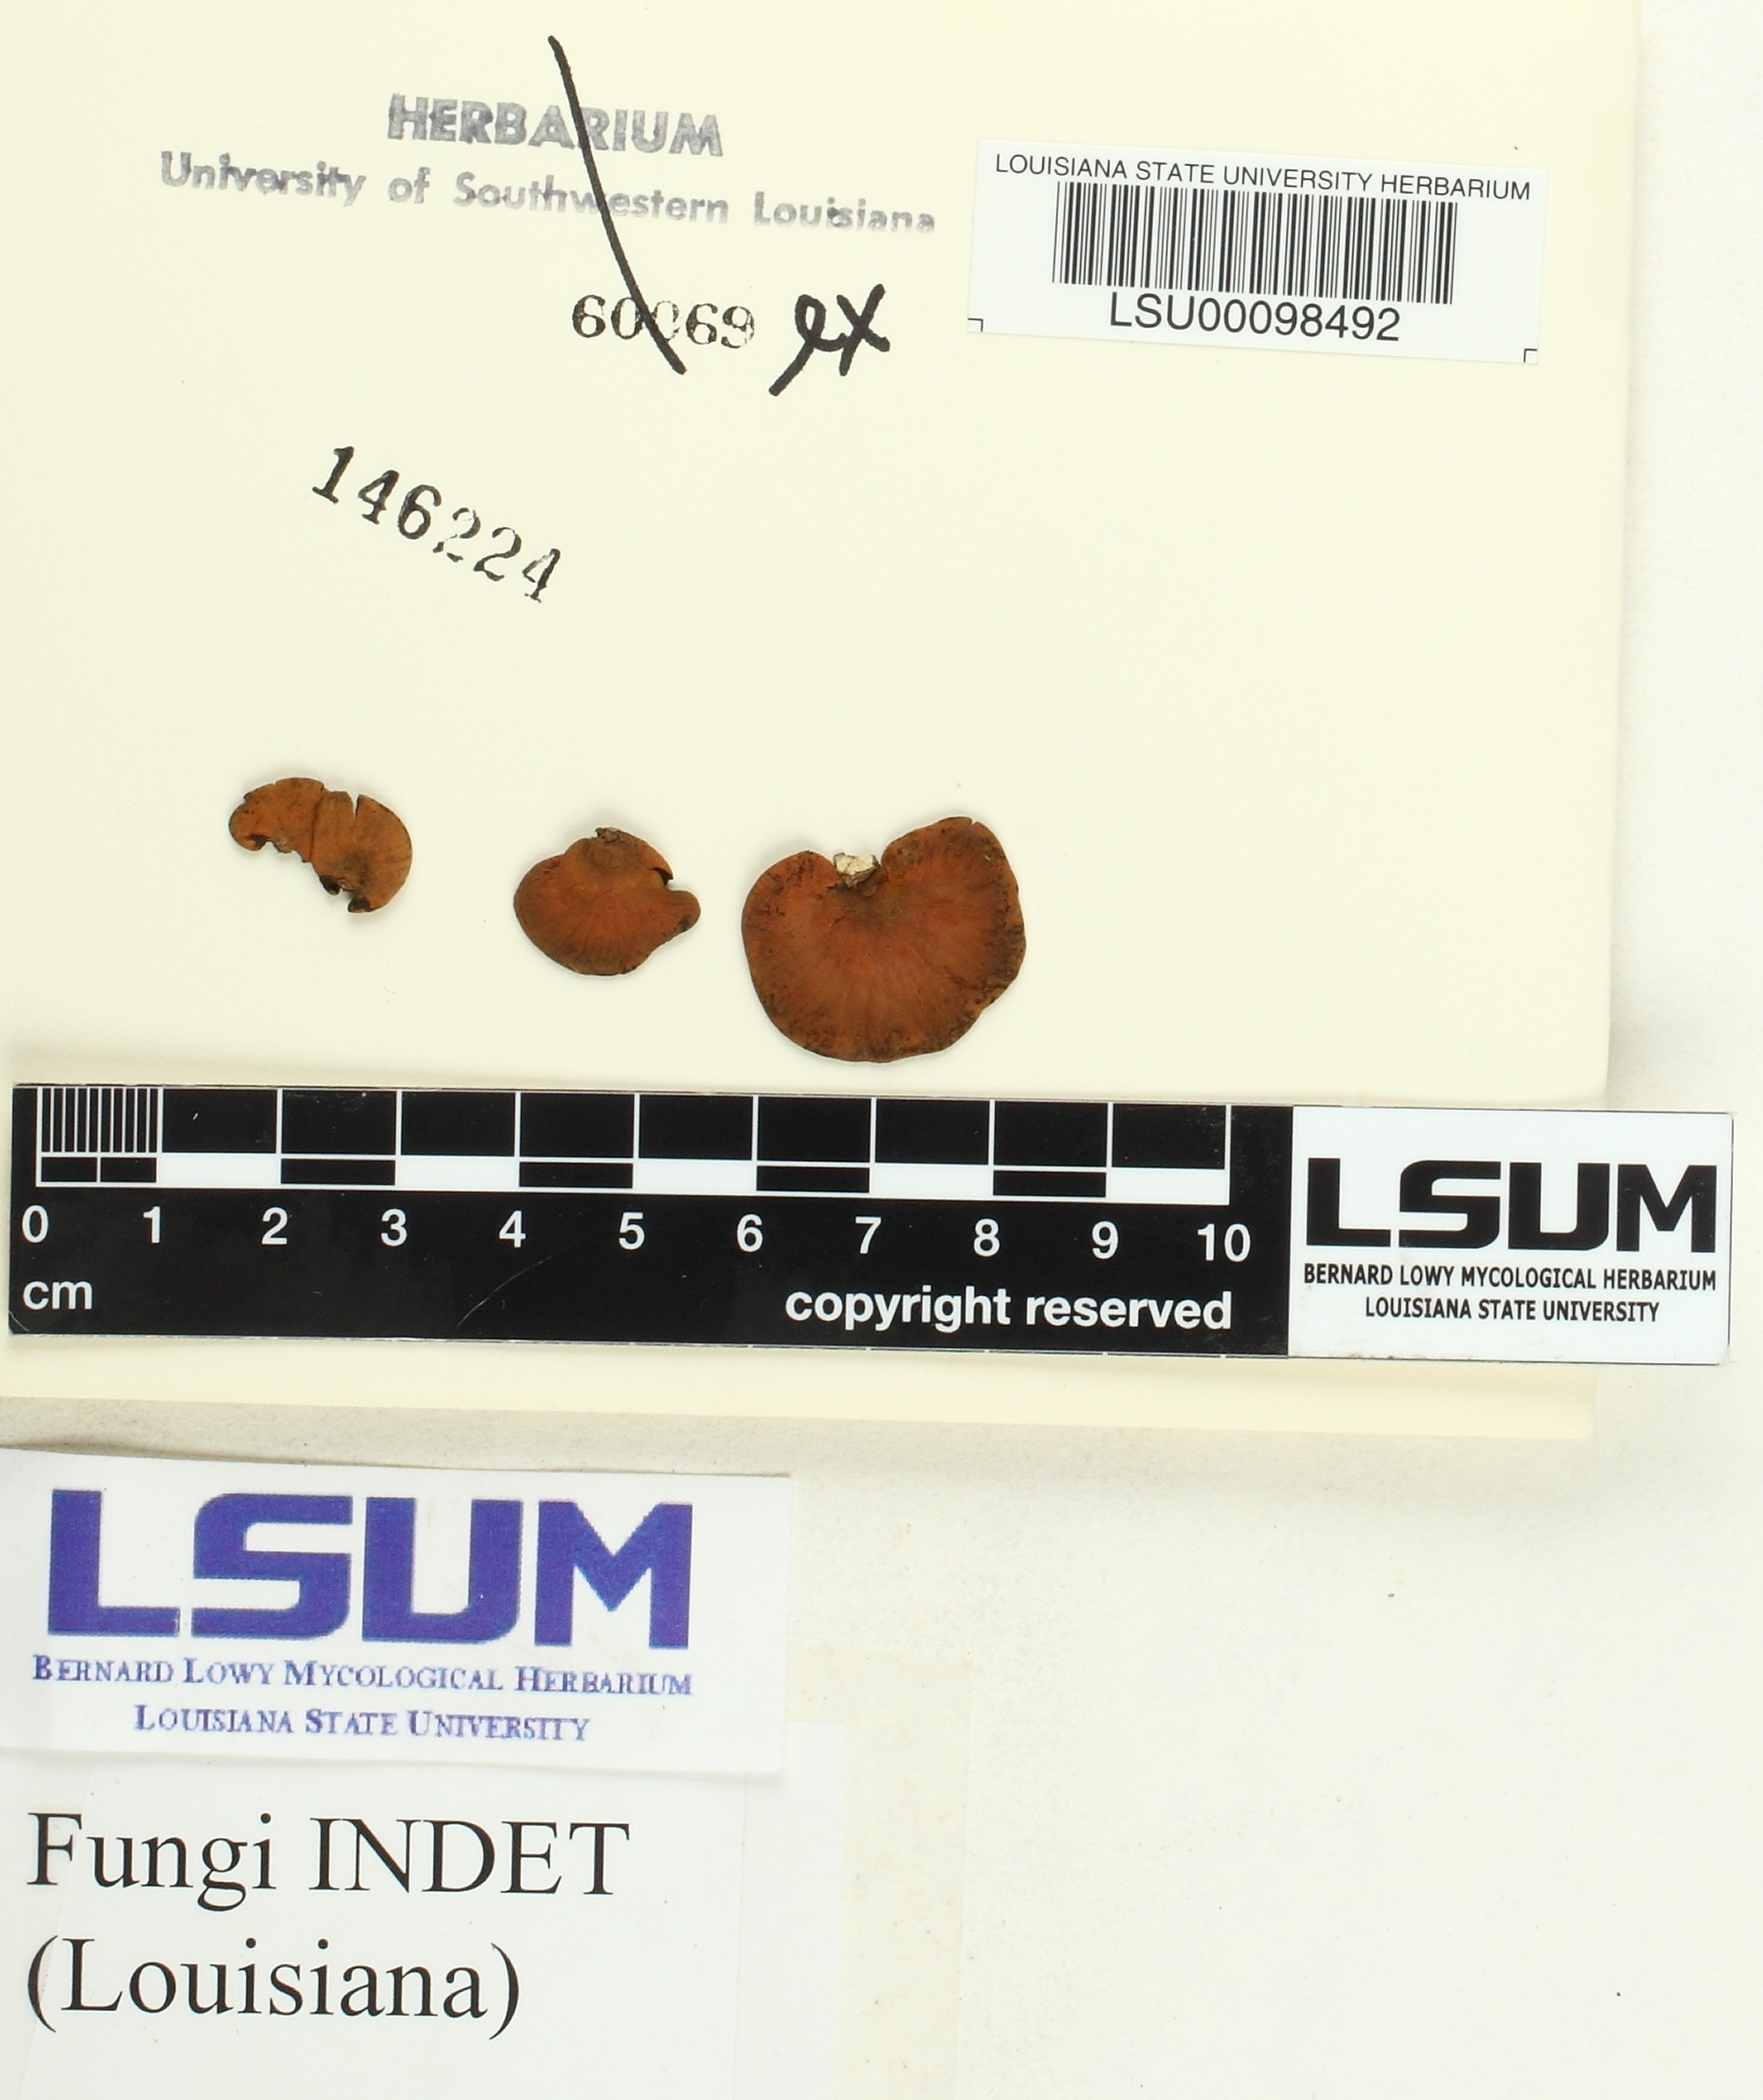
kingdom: Fungi
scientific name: Fungi
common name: Fungi
